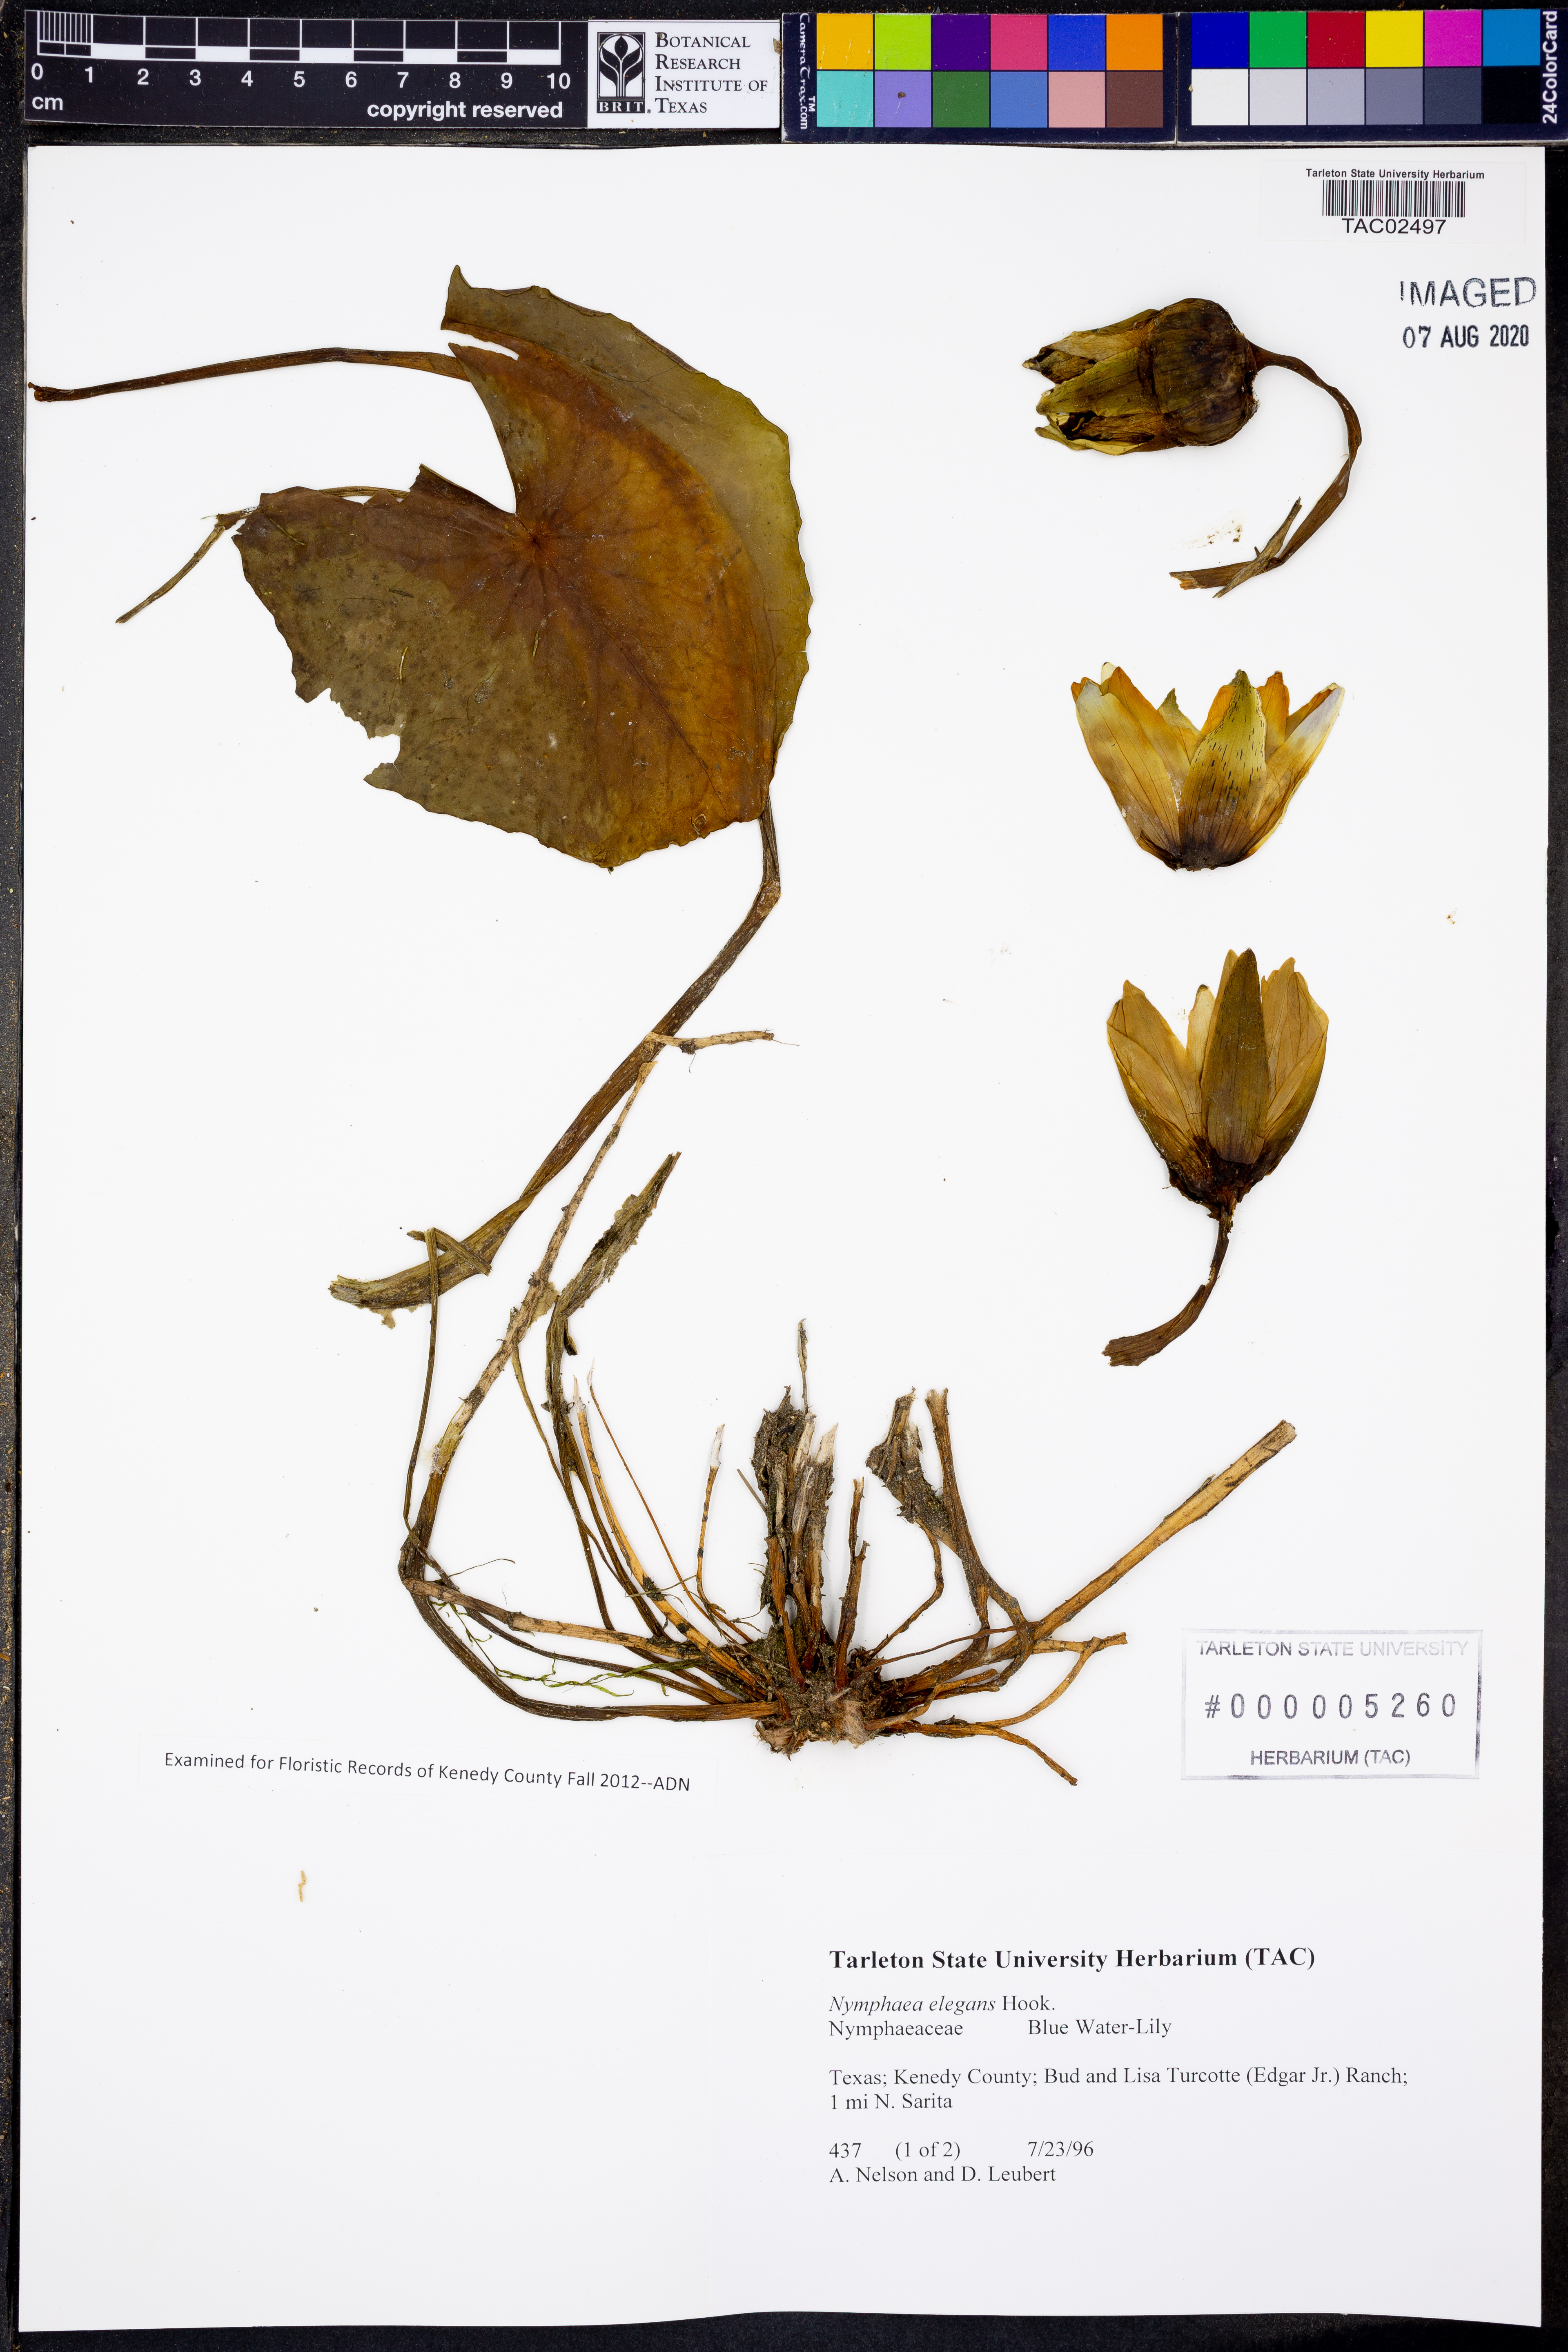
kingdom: Plantae
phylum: Tracheophyta
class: Magnoliopsida
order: Nymphaeales
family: Nymphaeaceae
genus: Nymphaea
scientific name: Nymphaea elegans
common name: Blue water-lily
